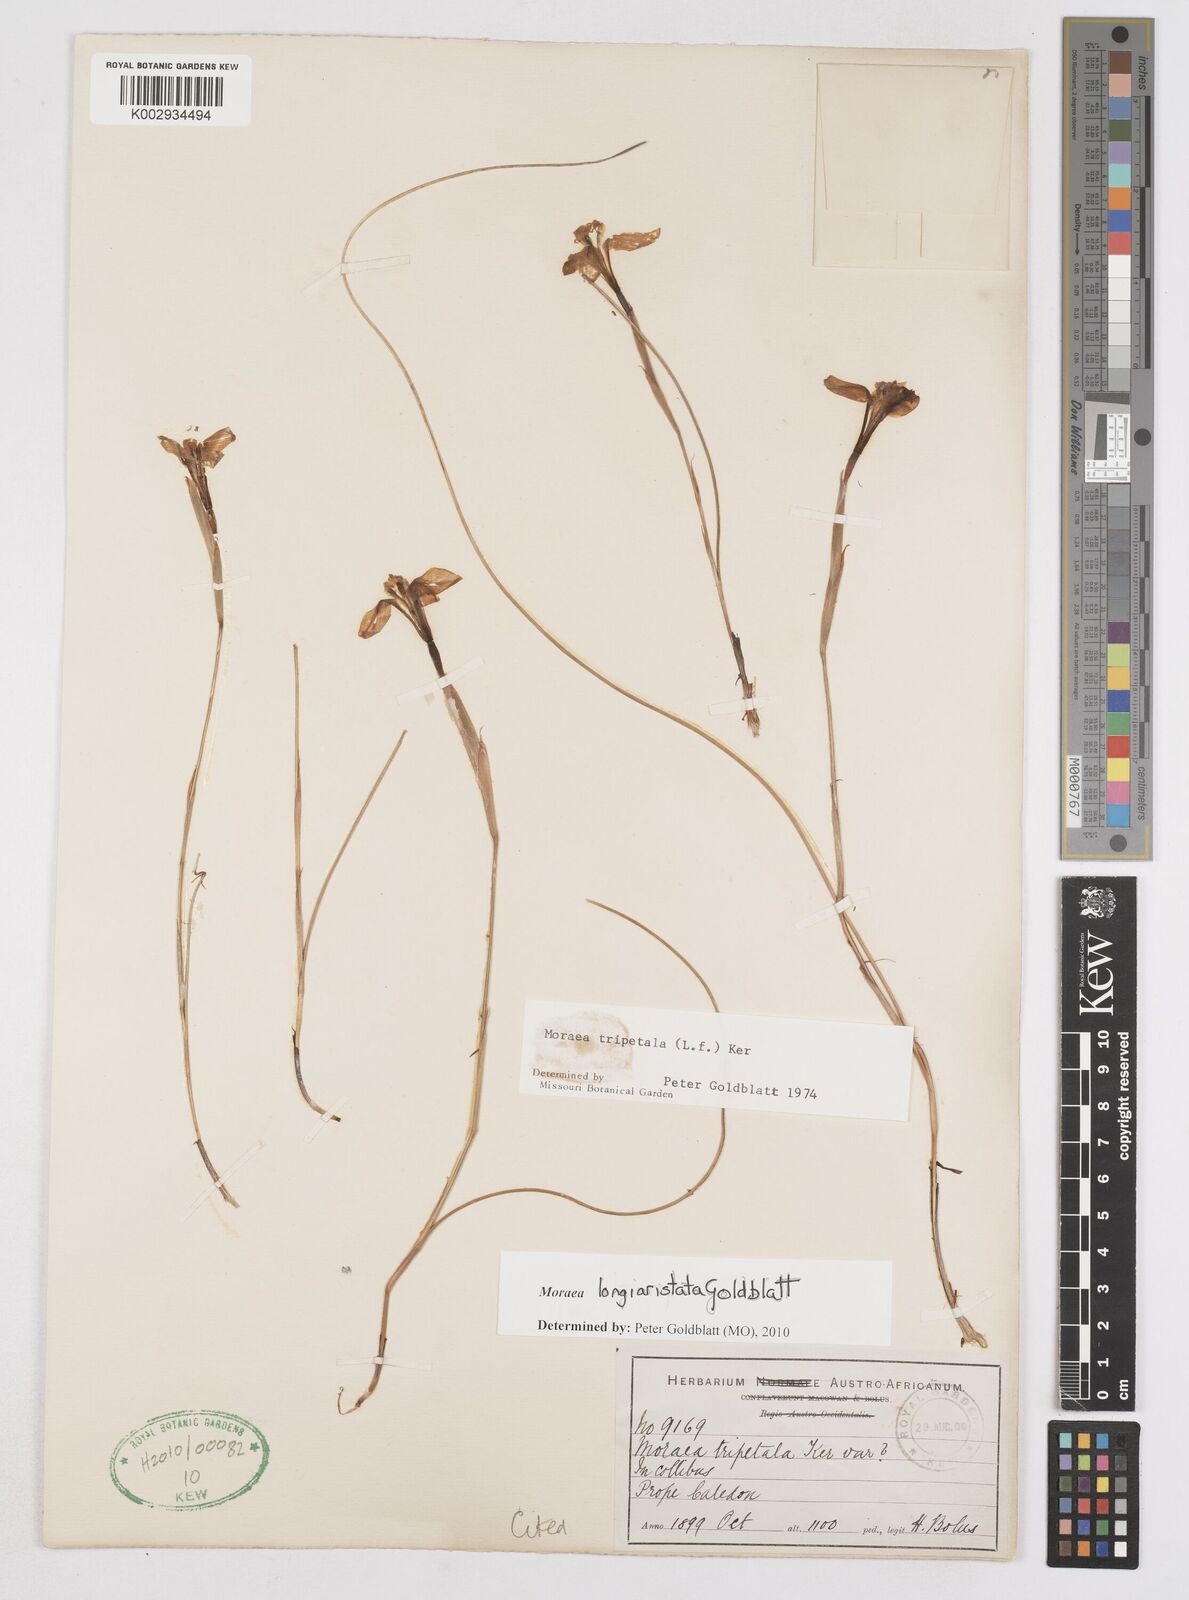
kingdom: Plantae
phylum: Tracheophyta
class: Liliopsida
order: Asparagales
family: Iridaceae
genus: Moraea
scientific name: Moraea longiaristata
